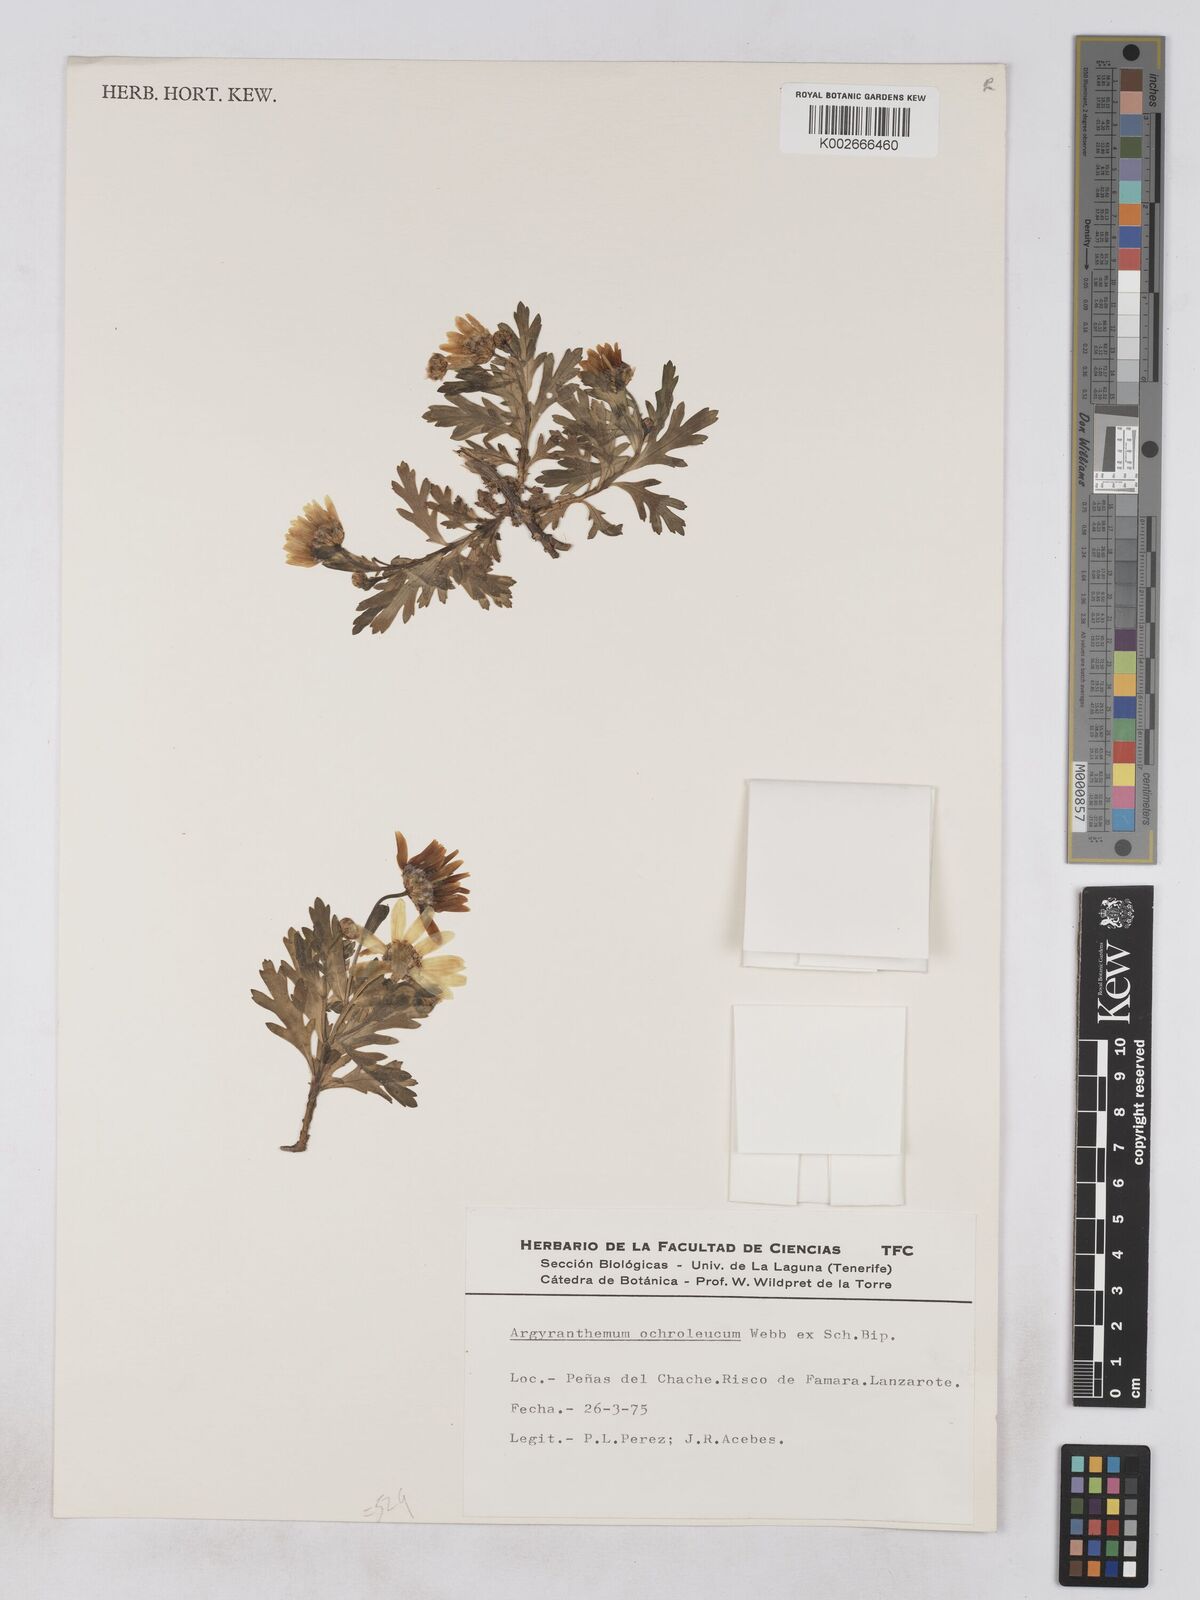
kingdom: Plantae
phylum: Tracheophyta
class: Magnoliopsida
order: Asterales
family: Asteraceae
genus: Argyranthemum
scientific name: Argyranthemum maderense
